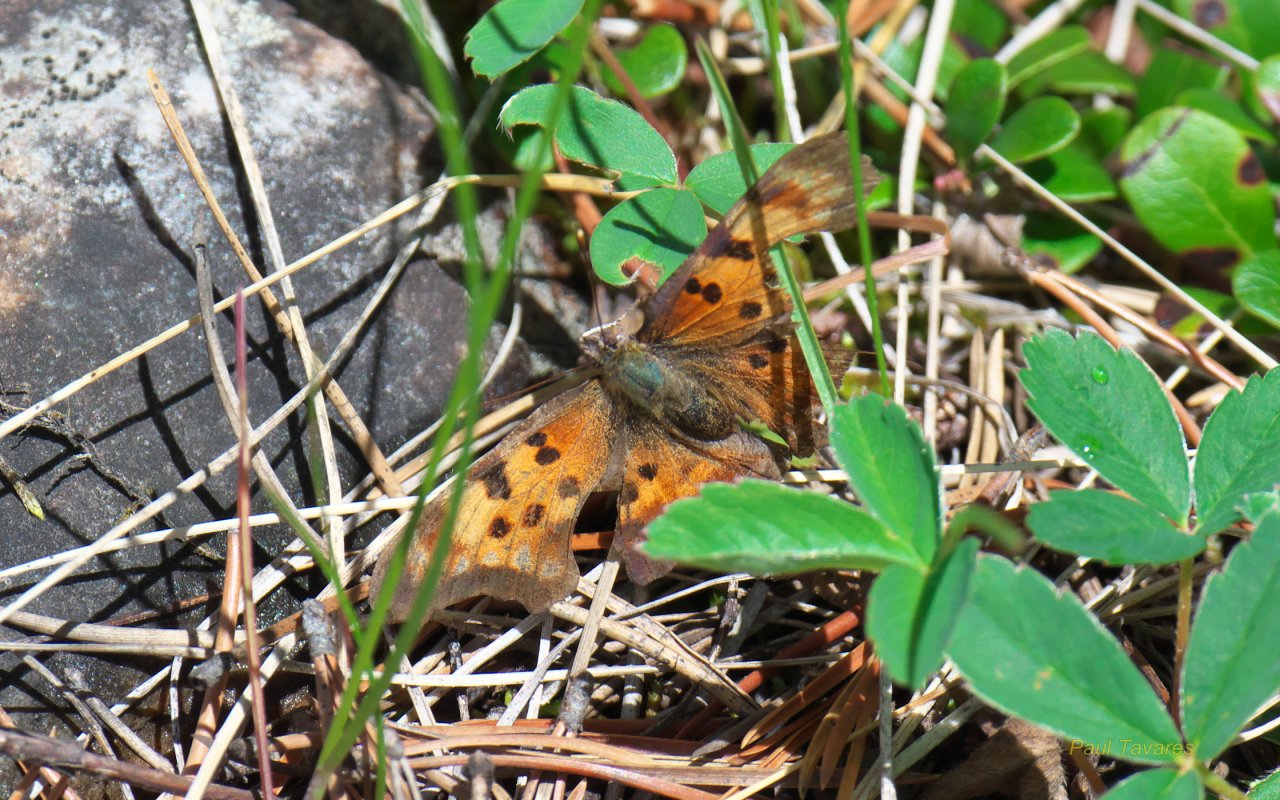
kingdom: Animalia
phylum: Arthropoda
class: Insecta
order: Lepidoptera
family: Nymphalidae
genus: Polygonia
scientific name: Polygonia faunus
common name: Green Comma
